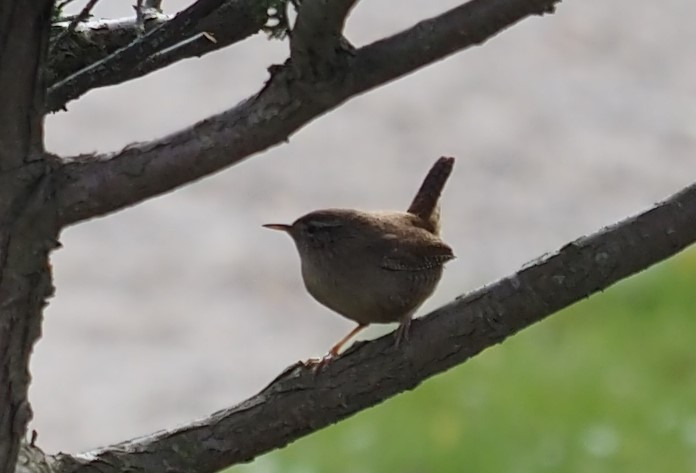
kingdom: Animalia
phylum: Chordata
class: Aves
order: Passeriformes
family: Troglodytidae
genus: Troglodytes
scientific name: Troglodytes troglodytes
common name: Gærdesmutte
